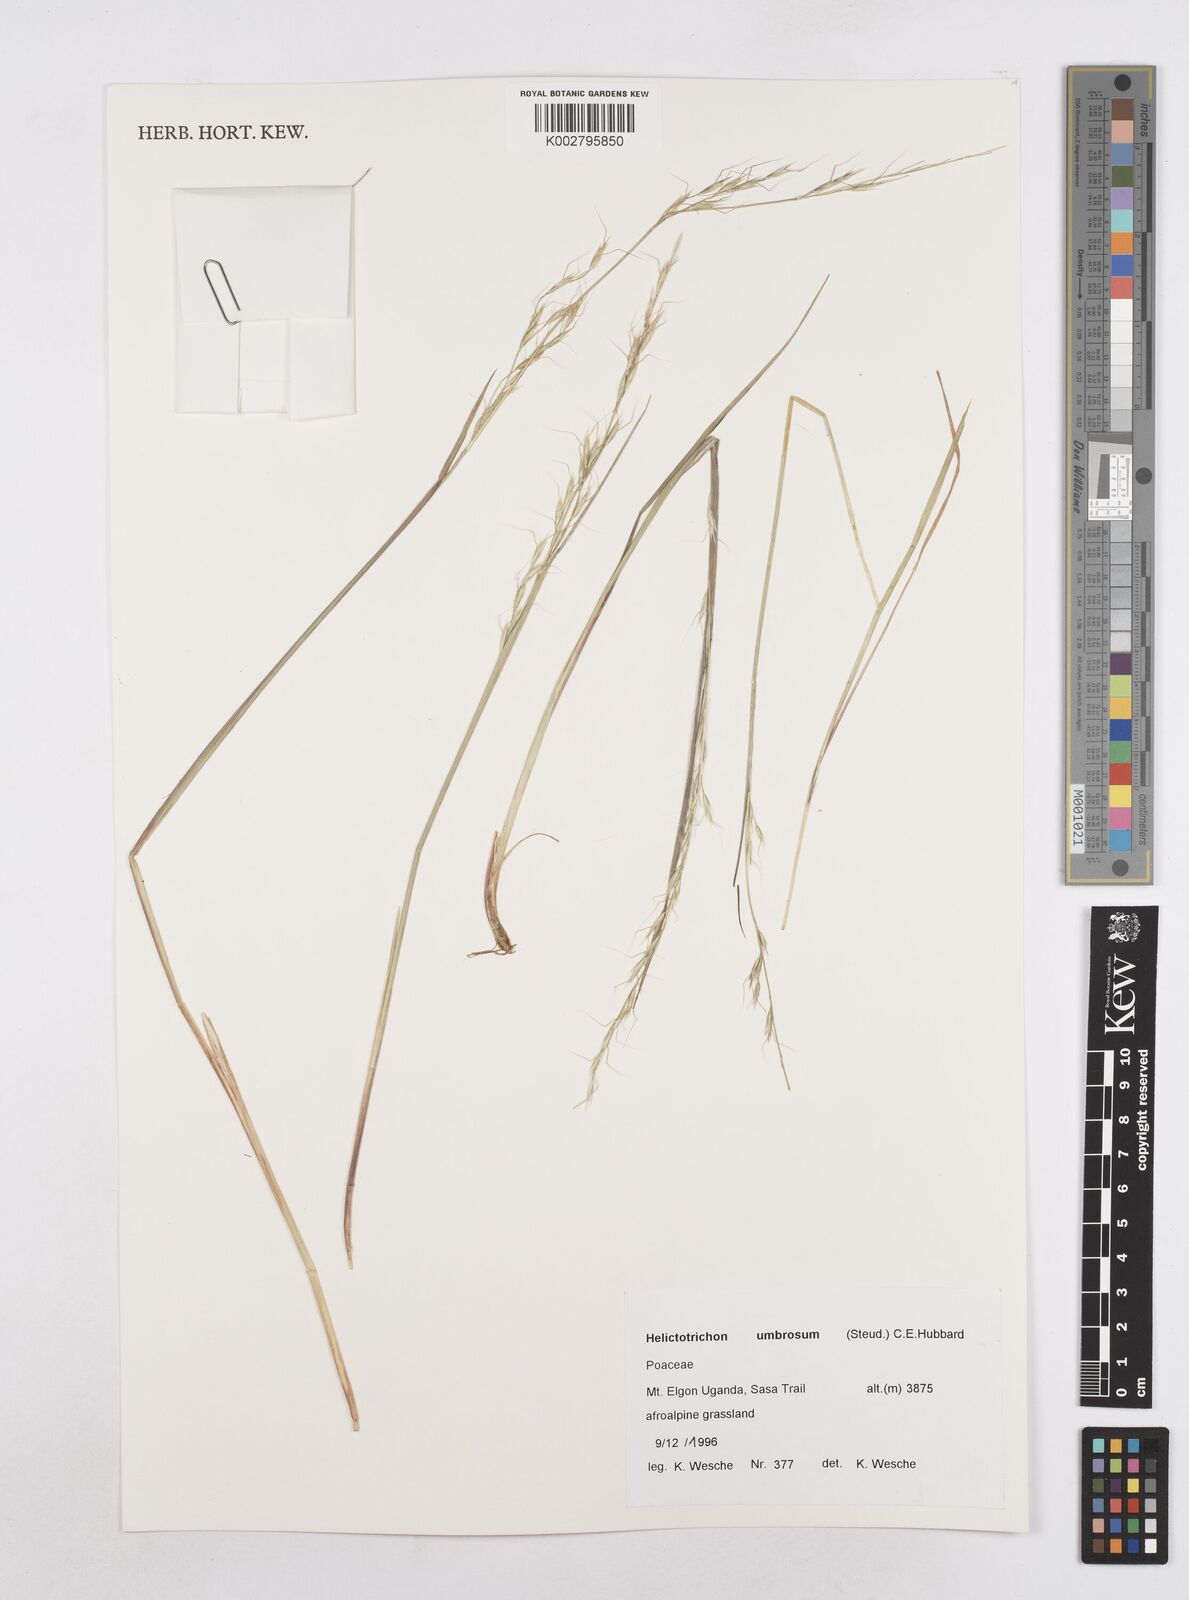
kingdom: Plantae
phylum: Tracheophyta
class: Liliopsida
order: Poales
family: Poaceae
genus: Trisetopsis
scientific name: Trisetopsis umbrosa
